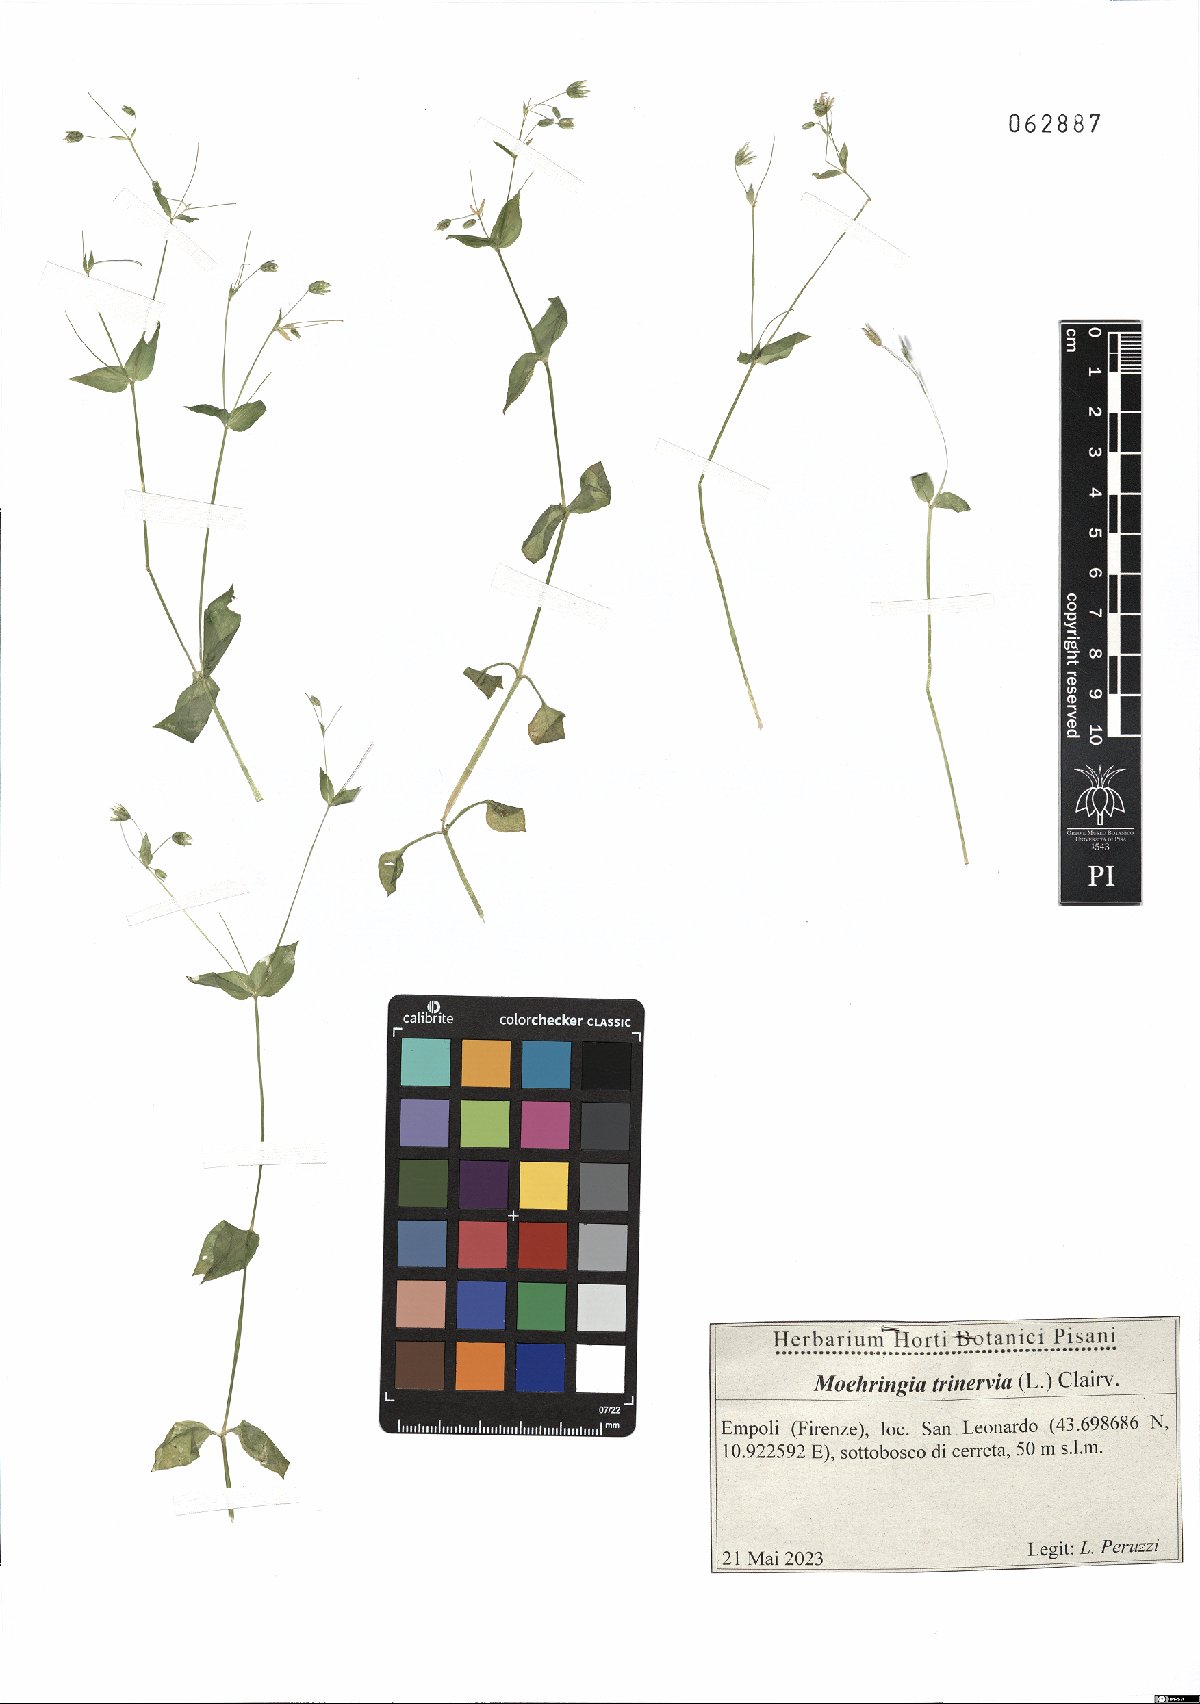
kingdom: Plantae
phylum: Tracheophyta
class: Magnoliopsida
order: Caryophyllales
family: Caryophyllaceae
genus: Moehringia
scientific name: Moehringia trinervia
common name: Three-nerved sandwort
